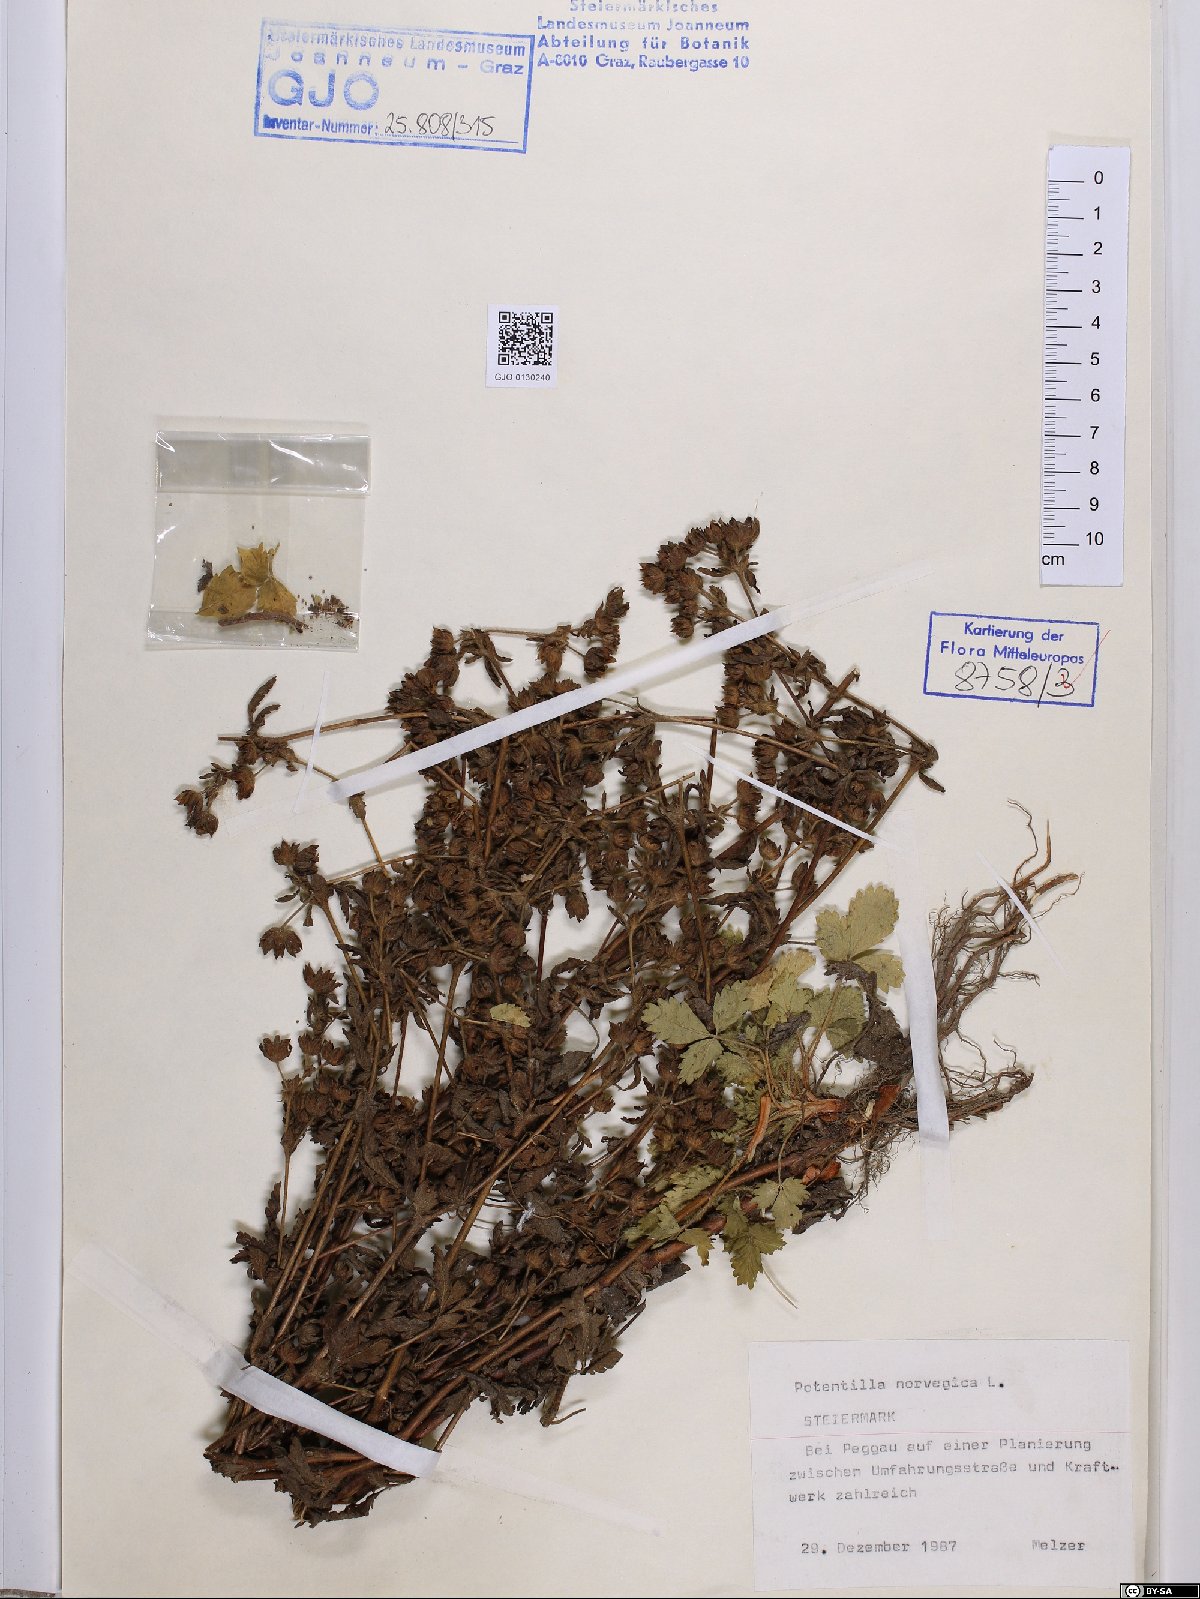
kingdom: Plantae
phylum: Tracheophyta
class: Magnoliopsida
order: Rosales
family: Rosaceae
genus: Potentilla
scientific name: Potentilla norvegica
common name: Ternate-leaved cinquefoil
